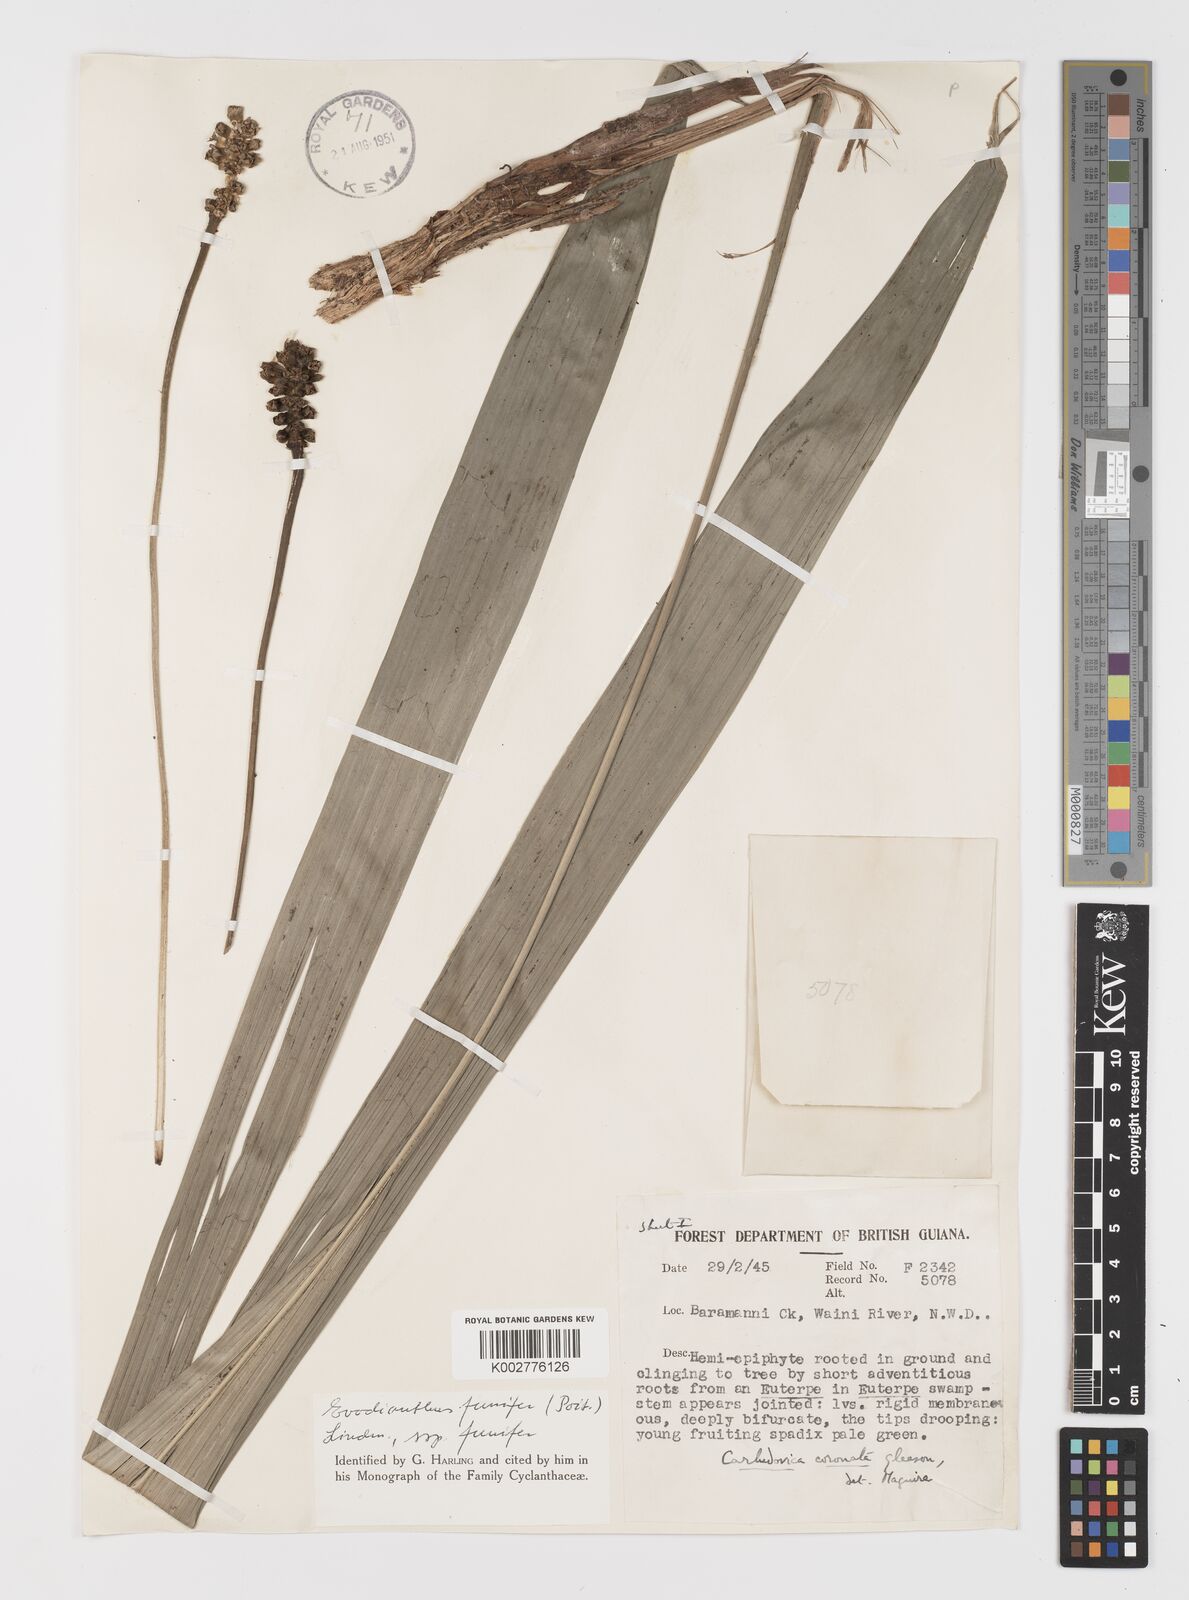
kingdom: Plantae
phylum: Tracheophyta
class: Liliopsida
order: Pandanales
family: Cyclanthaceae
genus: Evodianthus
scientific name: Evodianthus funifer
